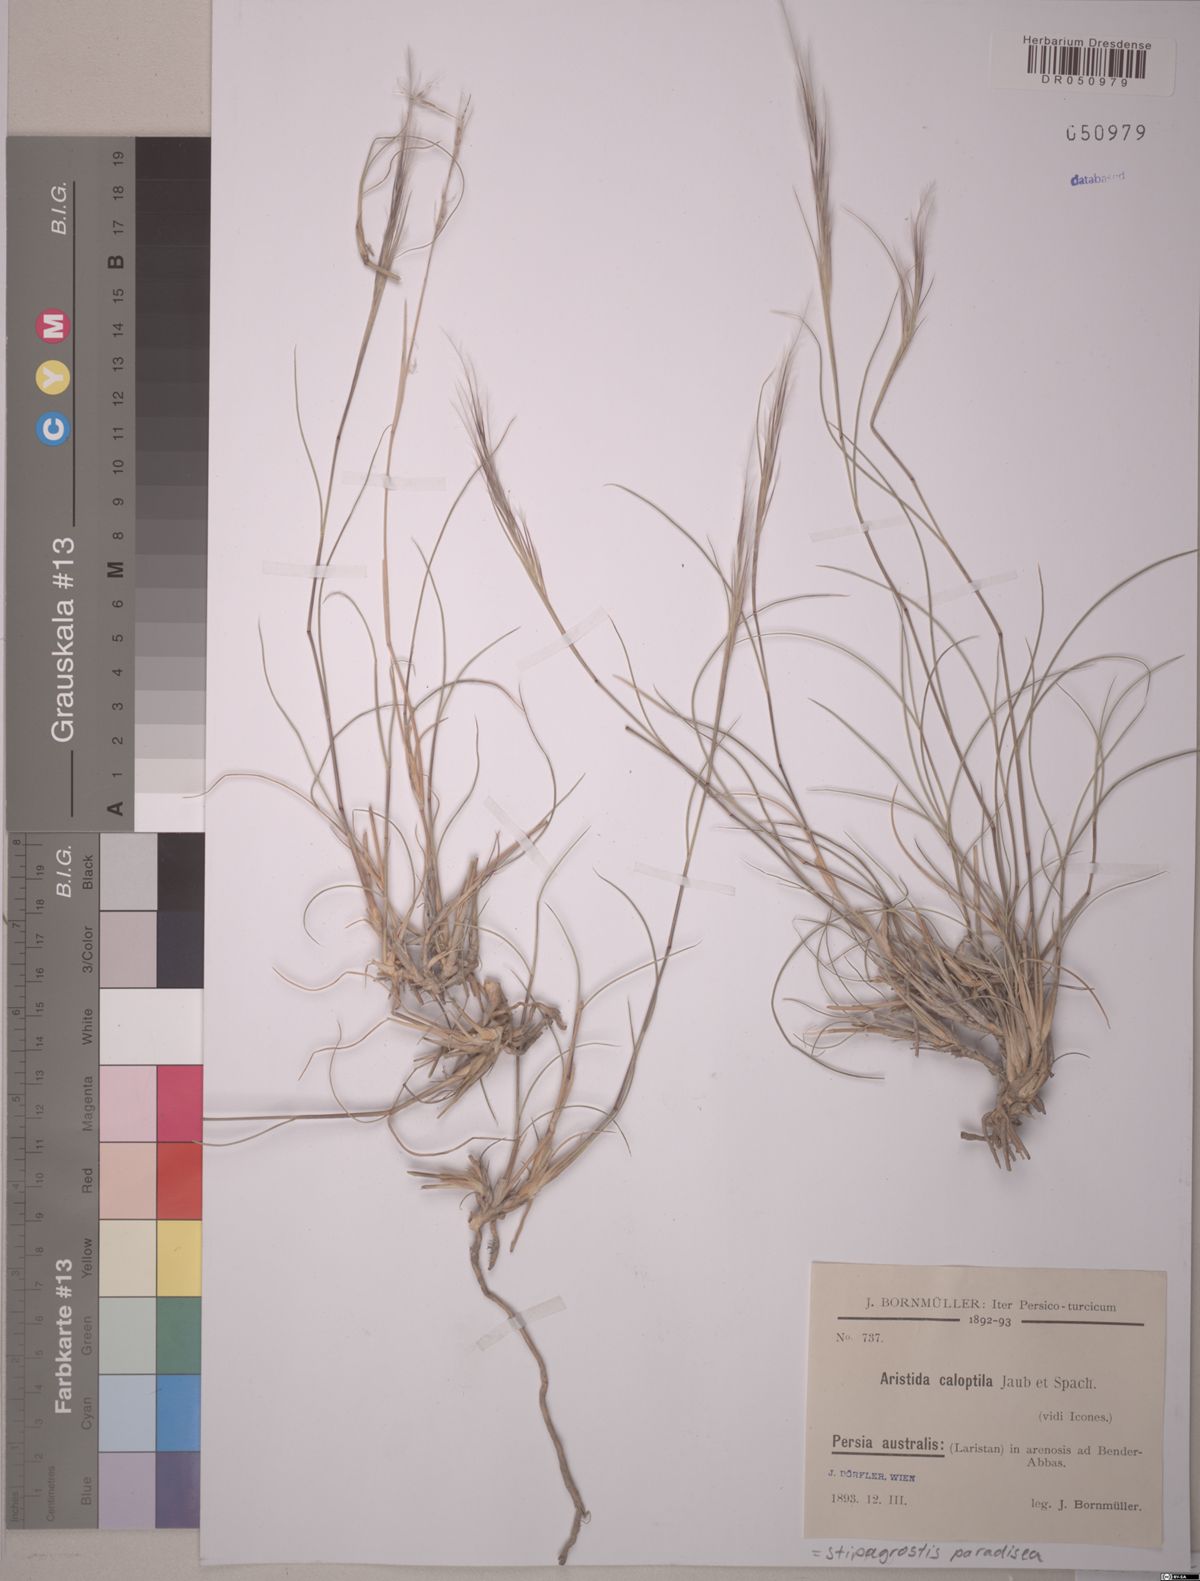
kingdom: Plantae
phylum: Tracheophyta
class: Liliopsida
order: Poales
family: Poaceae
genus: Stipagrostis
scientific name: Stipagrostis paradisea
